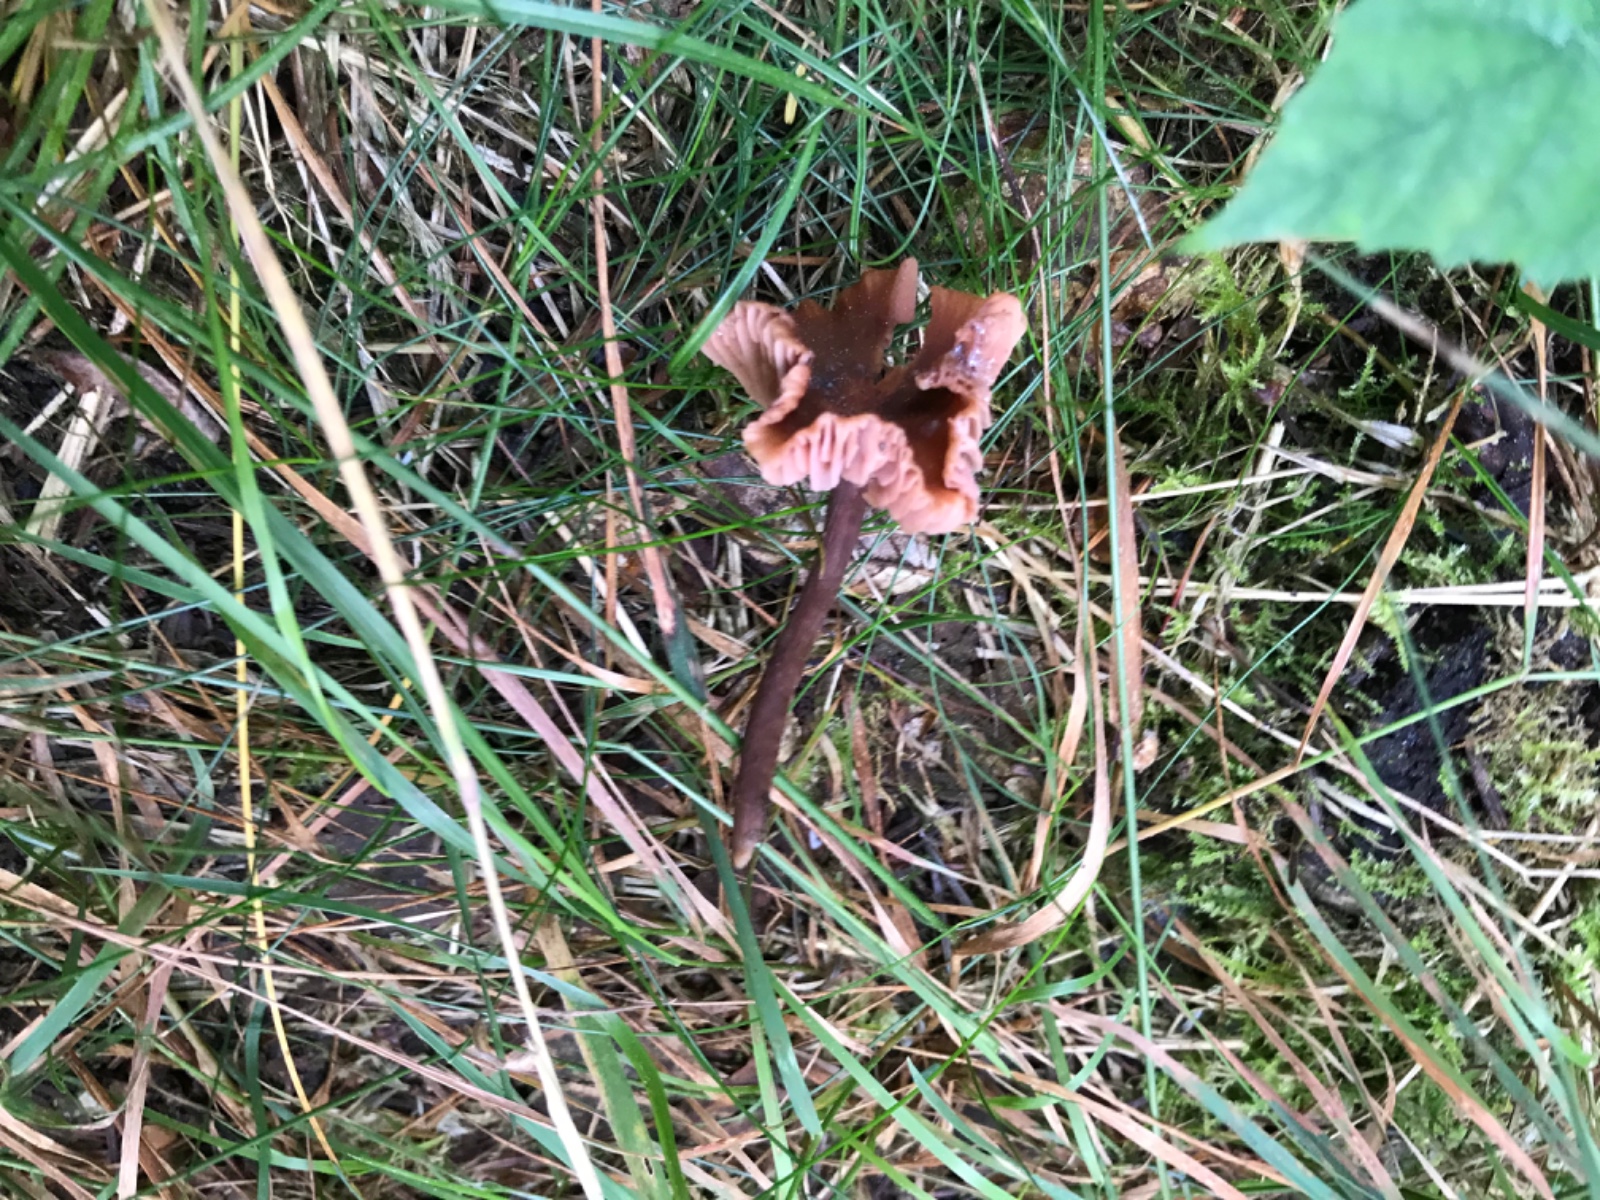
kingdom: Fungi
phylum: Basidiomycota
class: Agaricomycetes
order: Agaricales
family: Hydnangiaceae
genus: Laccaria
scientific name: Laccaria laccata
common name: rød ametysthat
